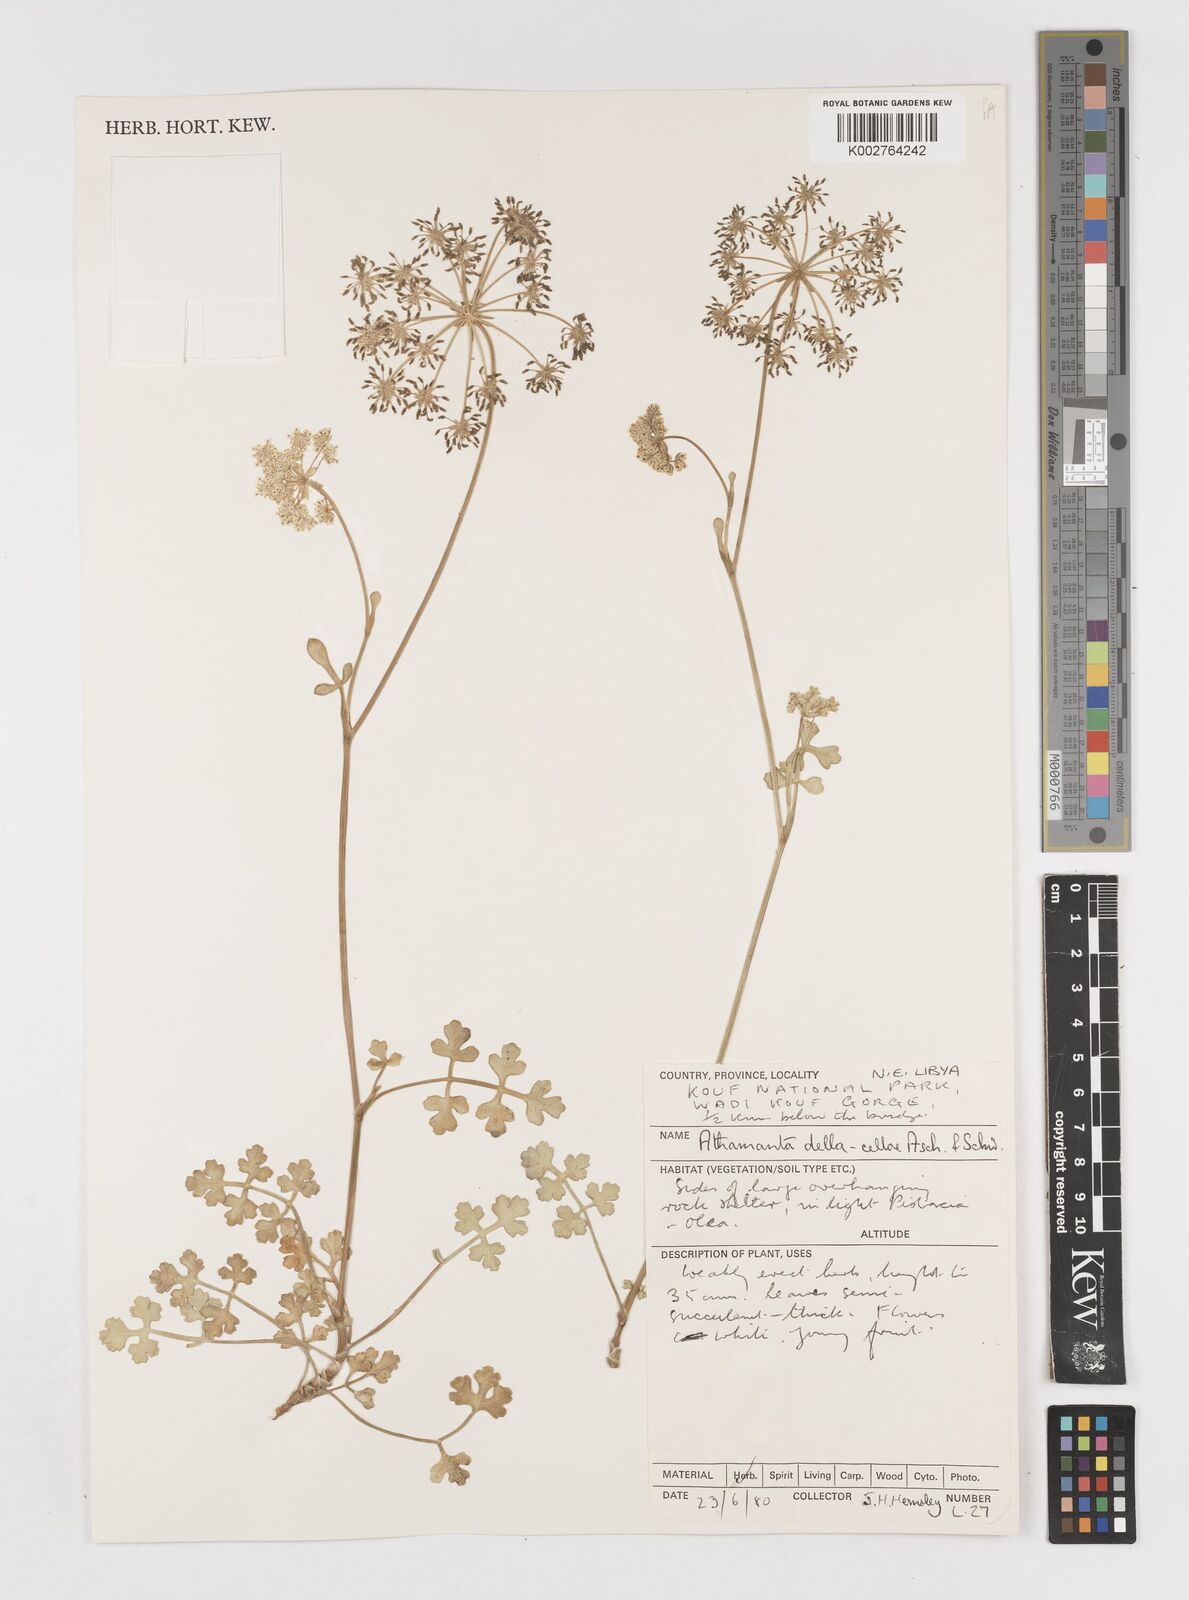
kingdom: Plantae
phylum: Tracheophyta
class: Magnoliopsida
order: Apiales
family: Apiaceae
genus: Daucus
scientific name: Daucus della-cellae
